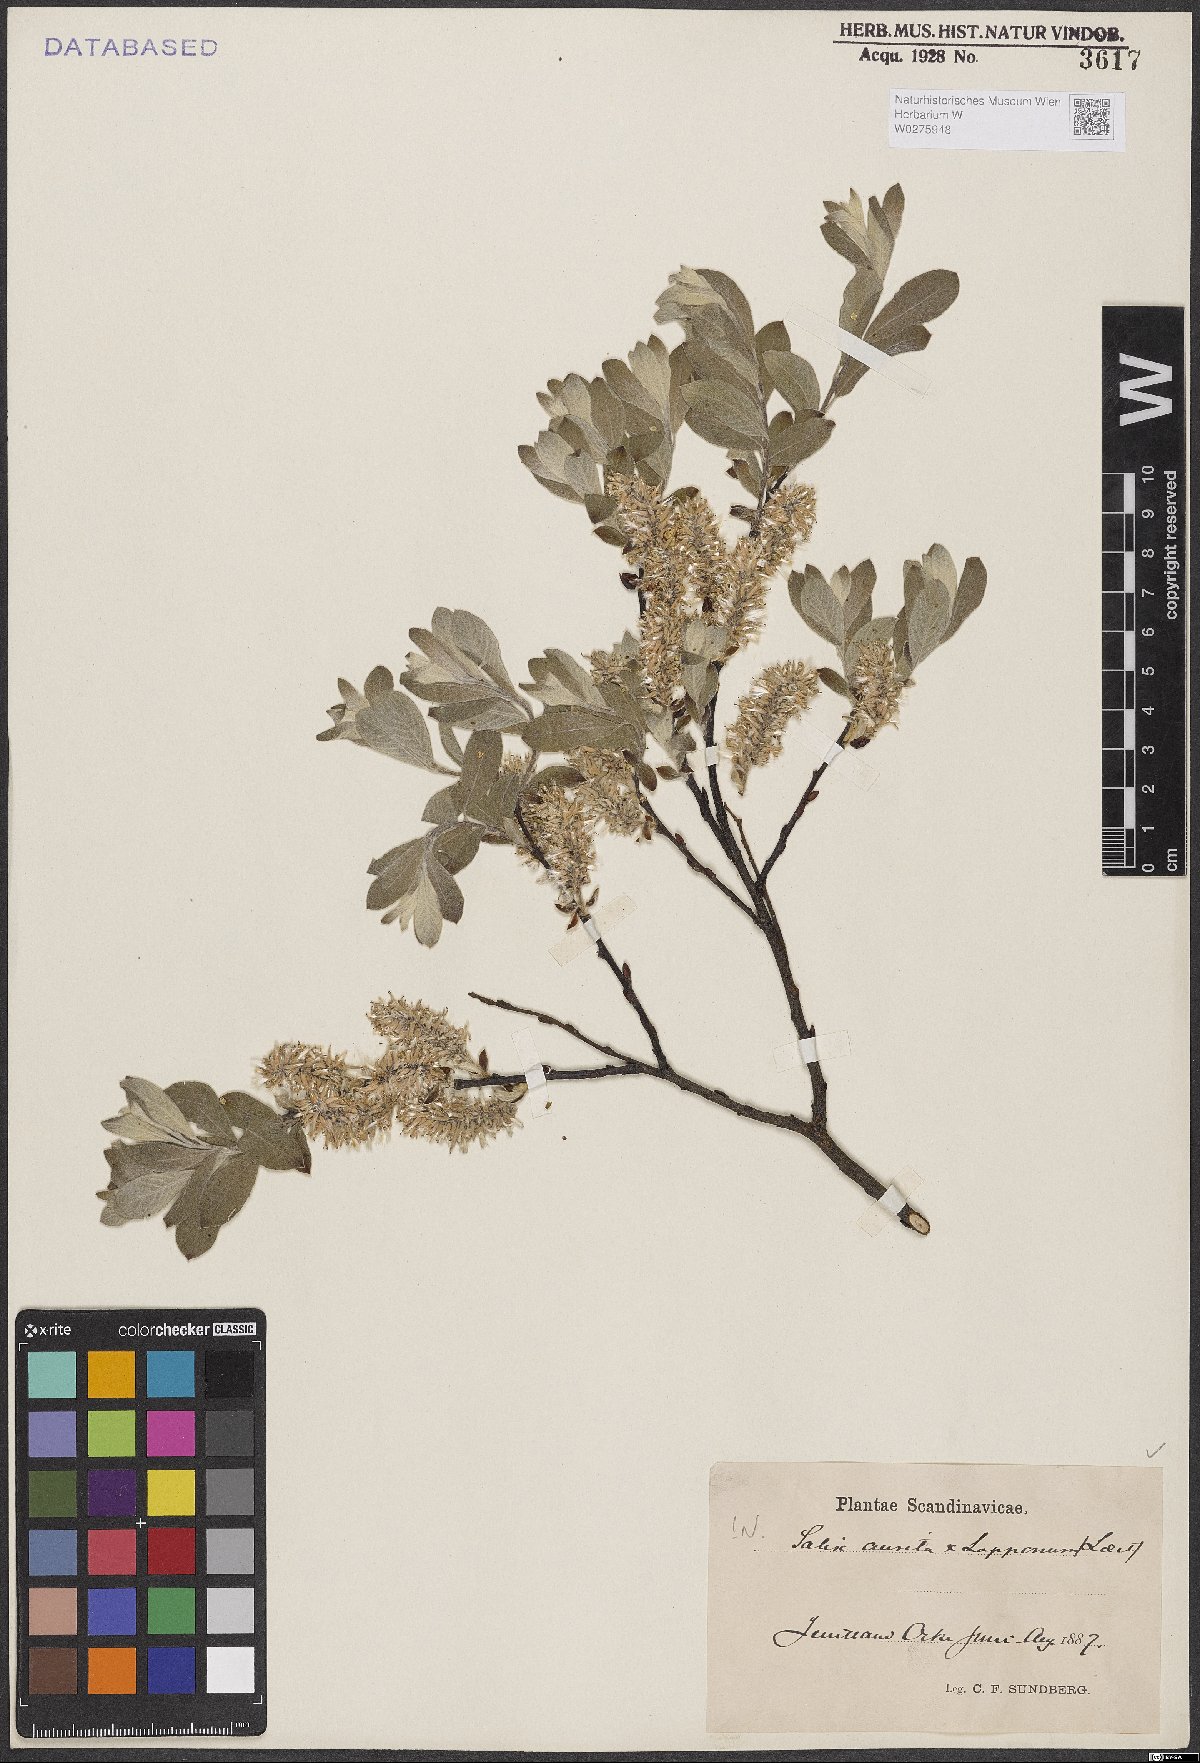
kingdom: Plantae
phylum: Tracheophyta
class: Magnoliopsida
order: Malpighiales
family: Salicaceae
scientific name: Salicaceae
